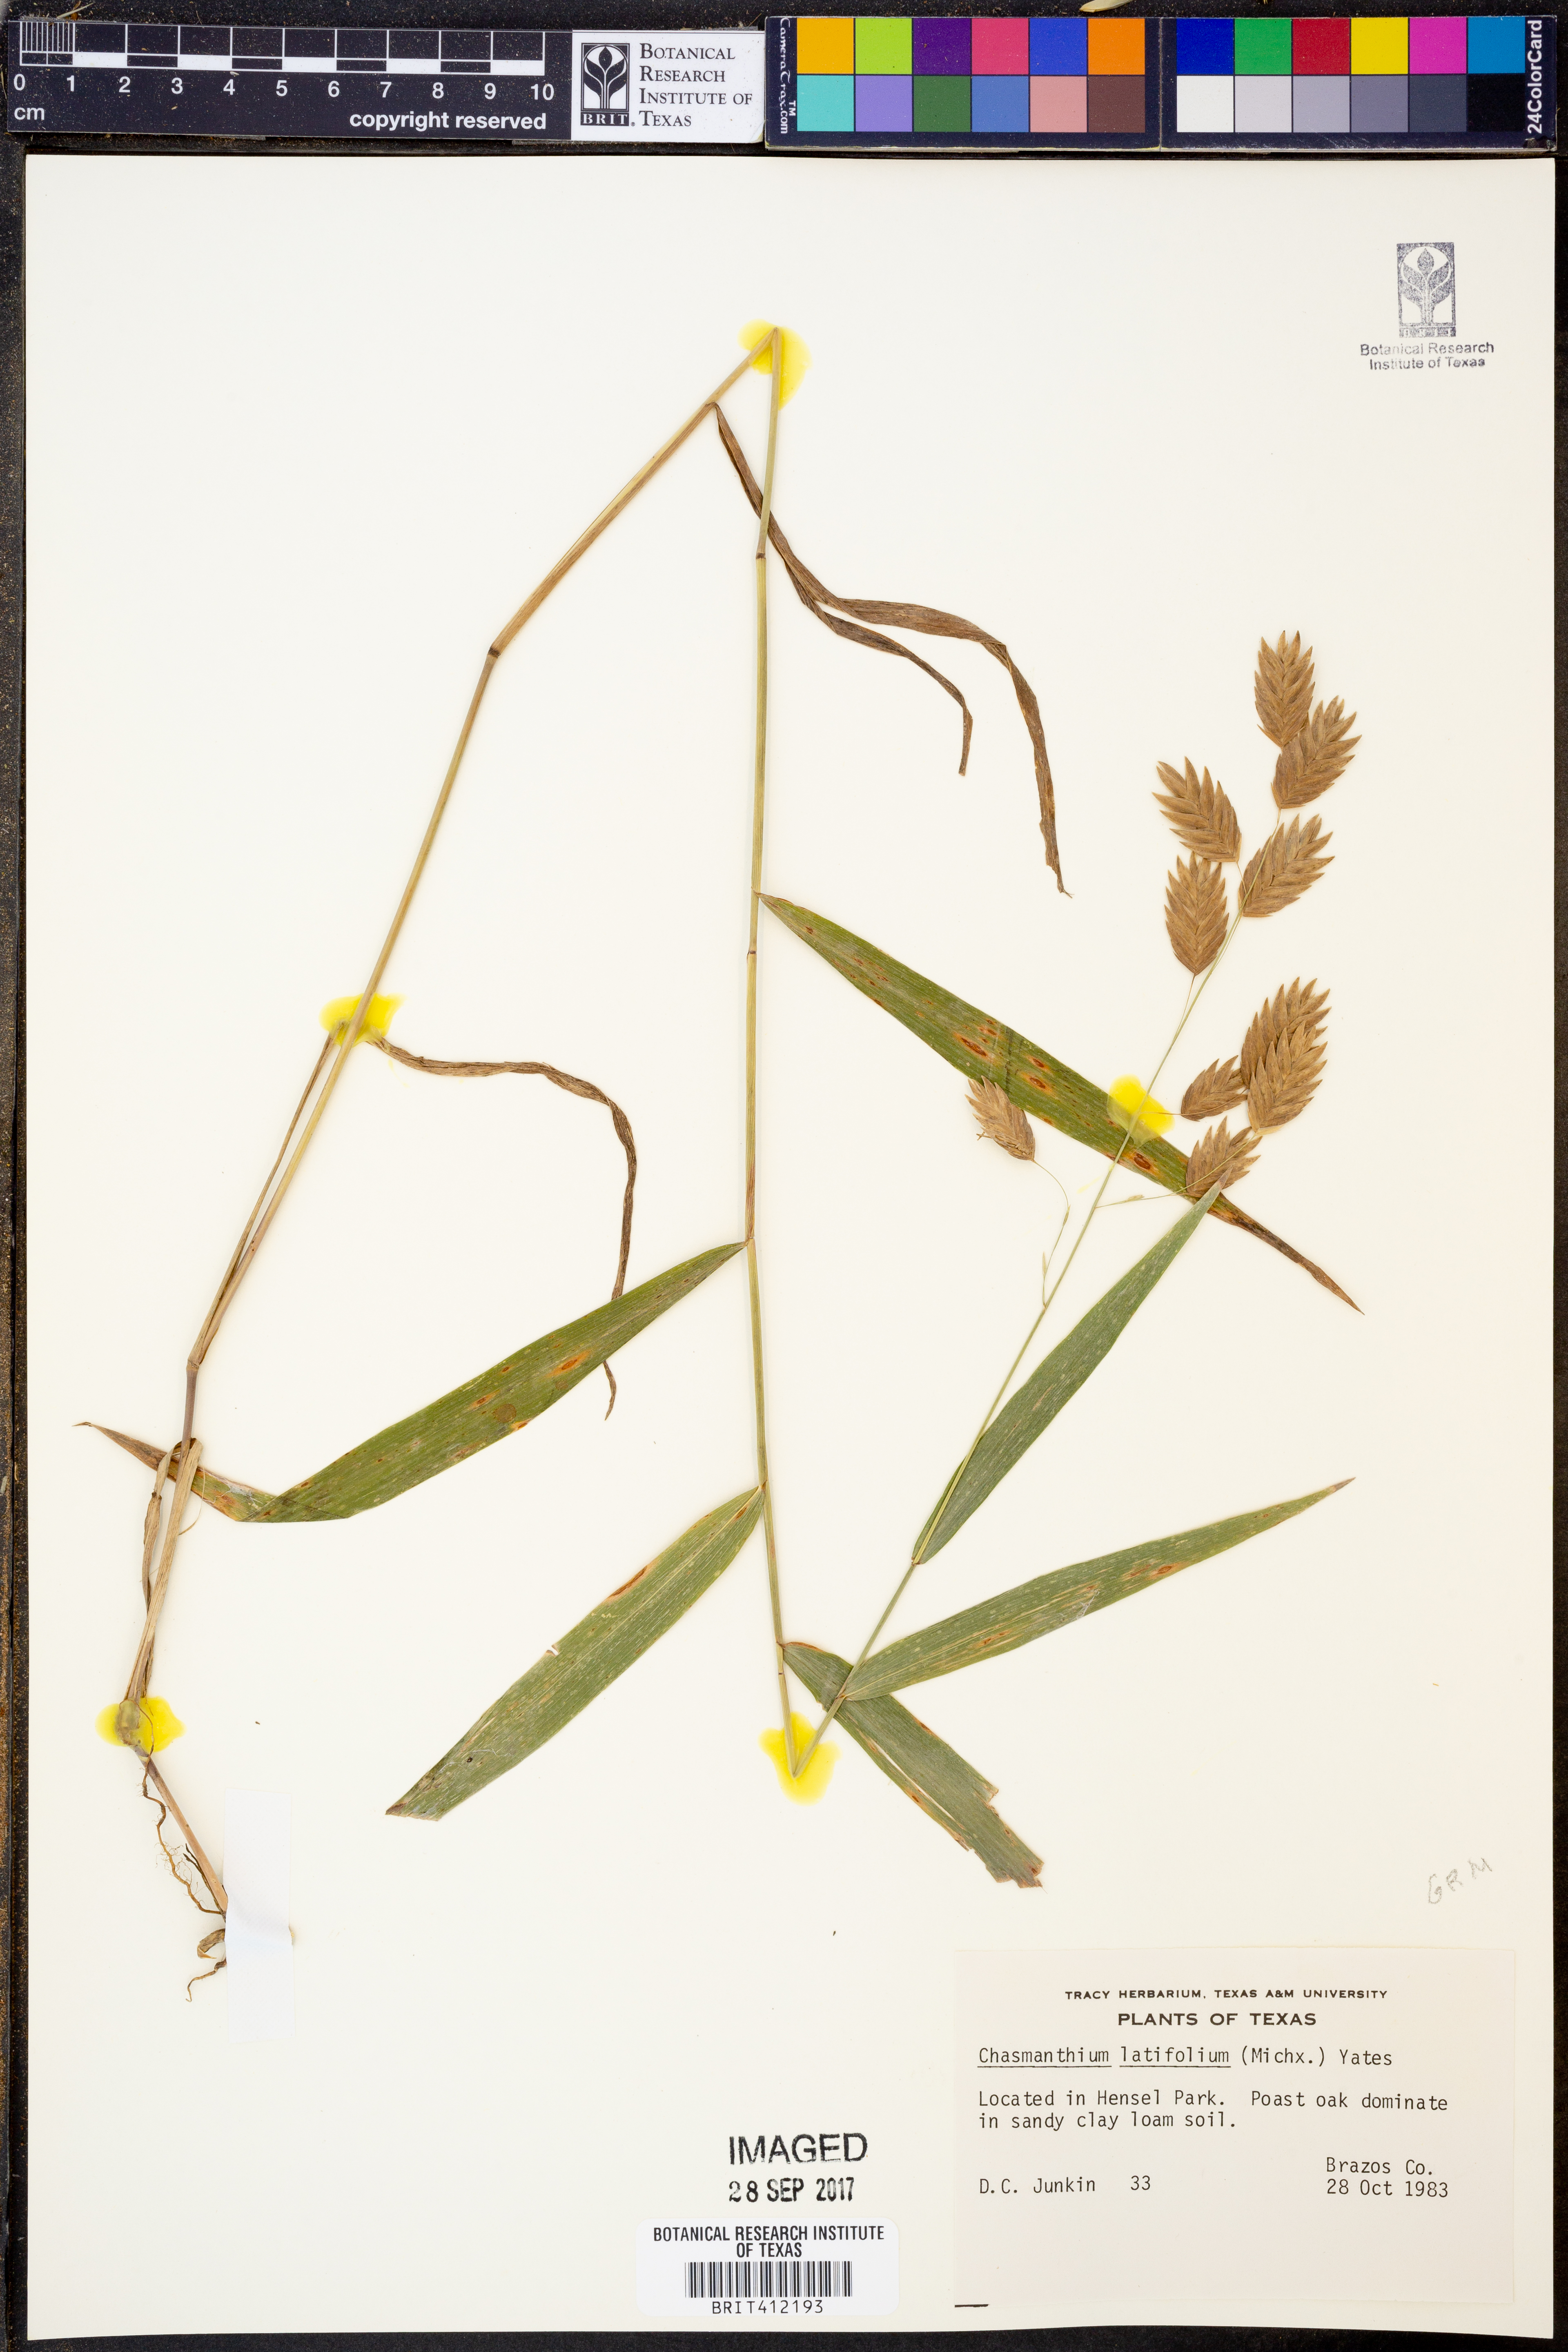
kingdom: Plantae
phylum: Tracheophyta
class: Liliopsida
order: Poales
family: Poaceae
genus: Chasmanthium
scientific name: Chasmanthium latifolium
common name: Broad-leaved chasmanthium
